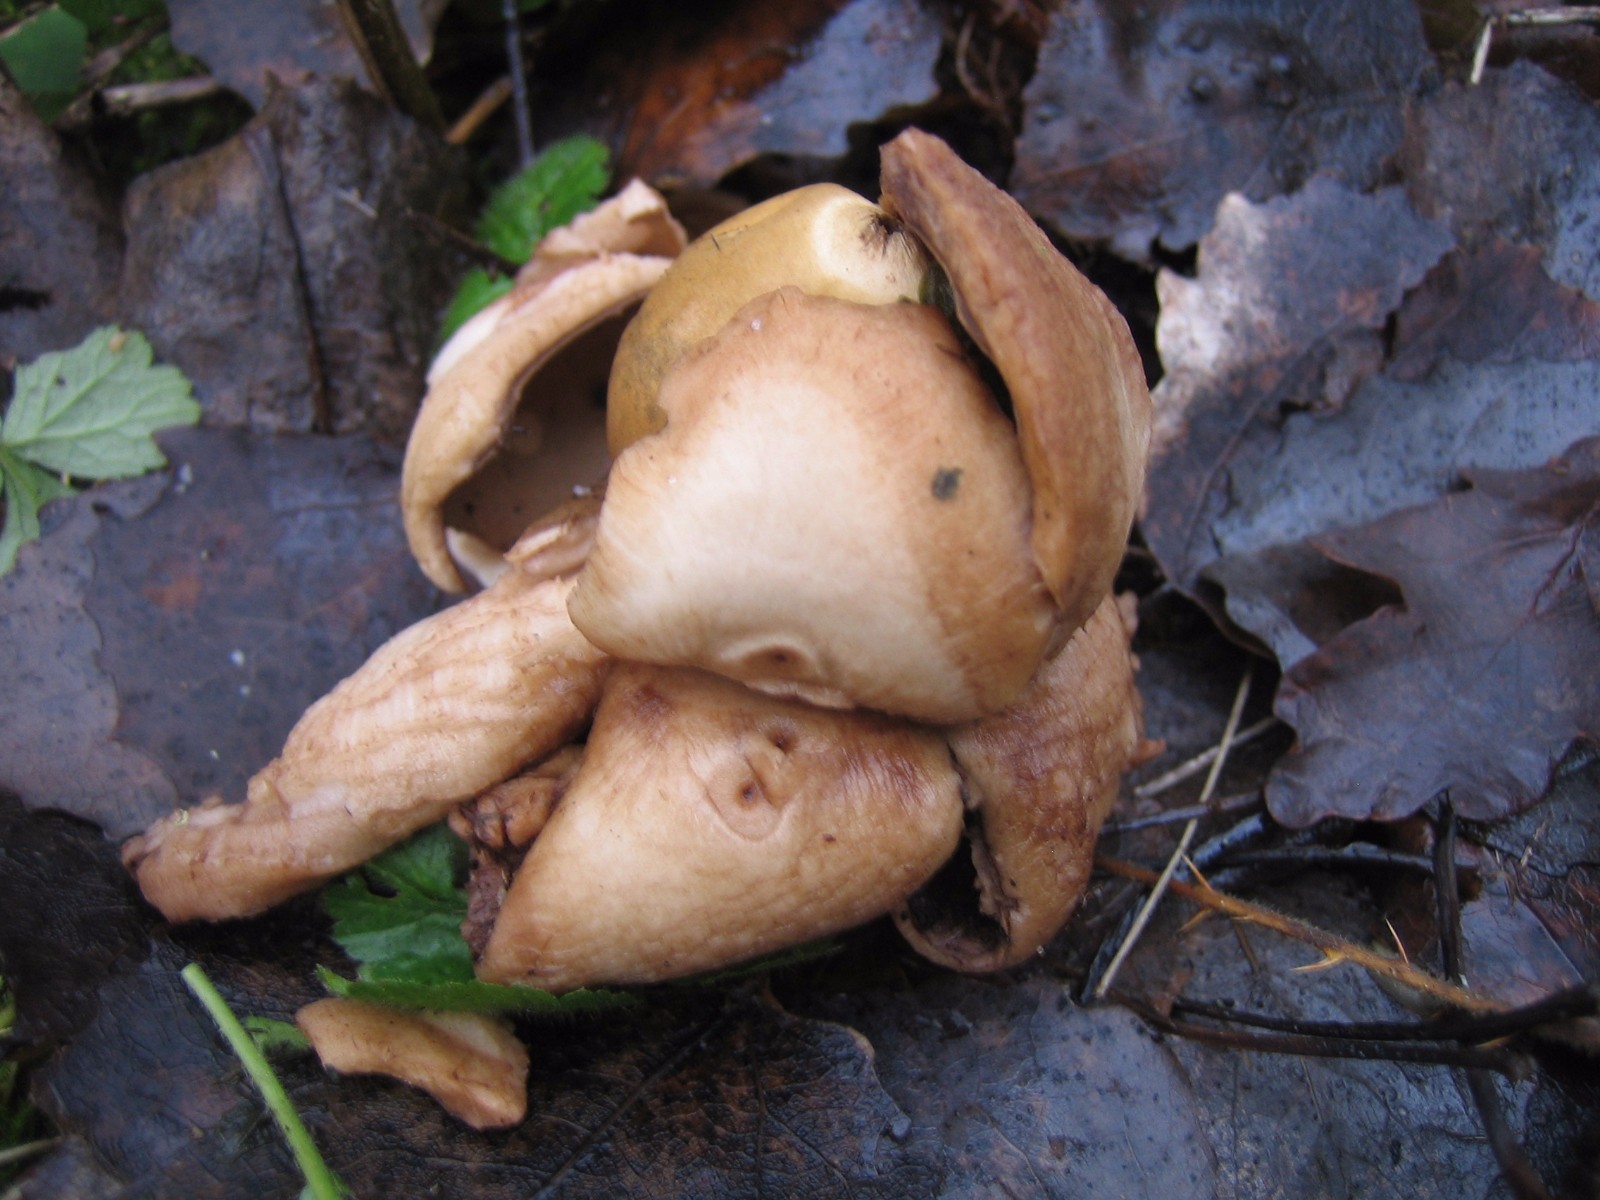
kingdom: Fungi
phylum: Basidiomycota
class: Agaricomycetes
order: Geastrales
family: Geastraceae
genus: Geastrum
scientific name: Geastrum michelianum
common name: kødet stjernebold
